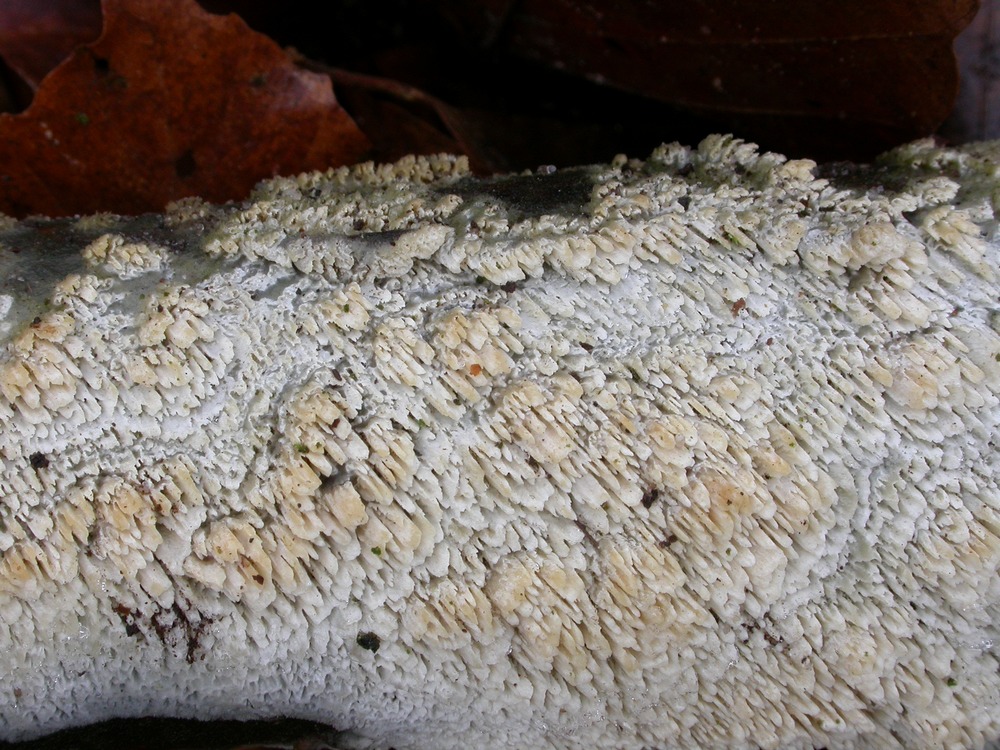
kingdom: Fungi
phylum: Basidiomycota
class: Agaricomycetes
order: Hymenochaetales
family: Schizoporaceae
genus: Schizopora
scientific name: Schizopora paradoxa
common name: hvid tandsvamp
